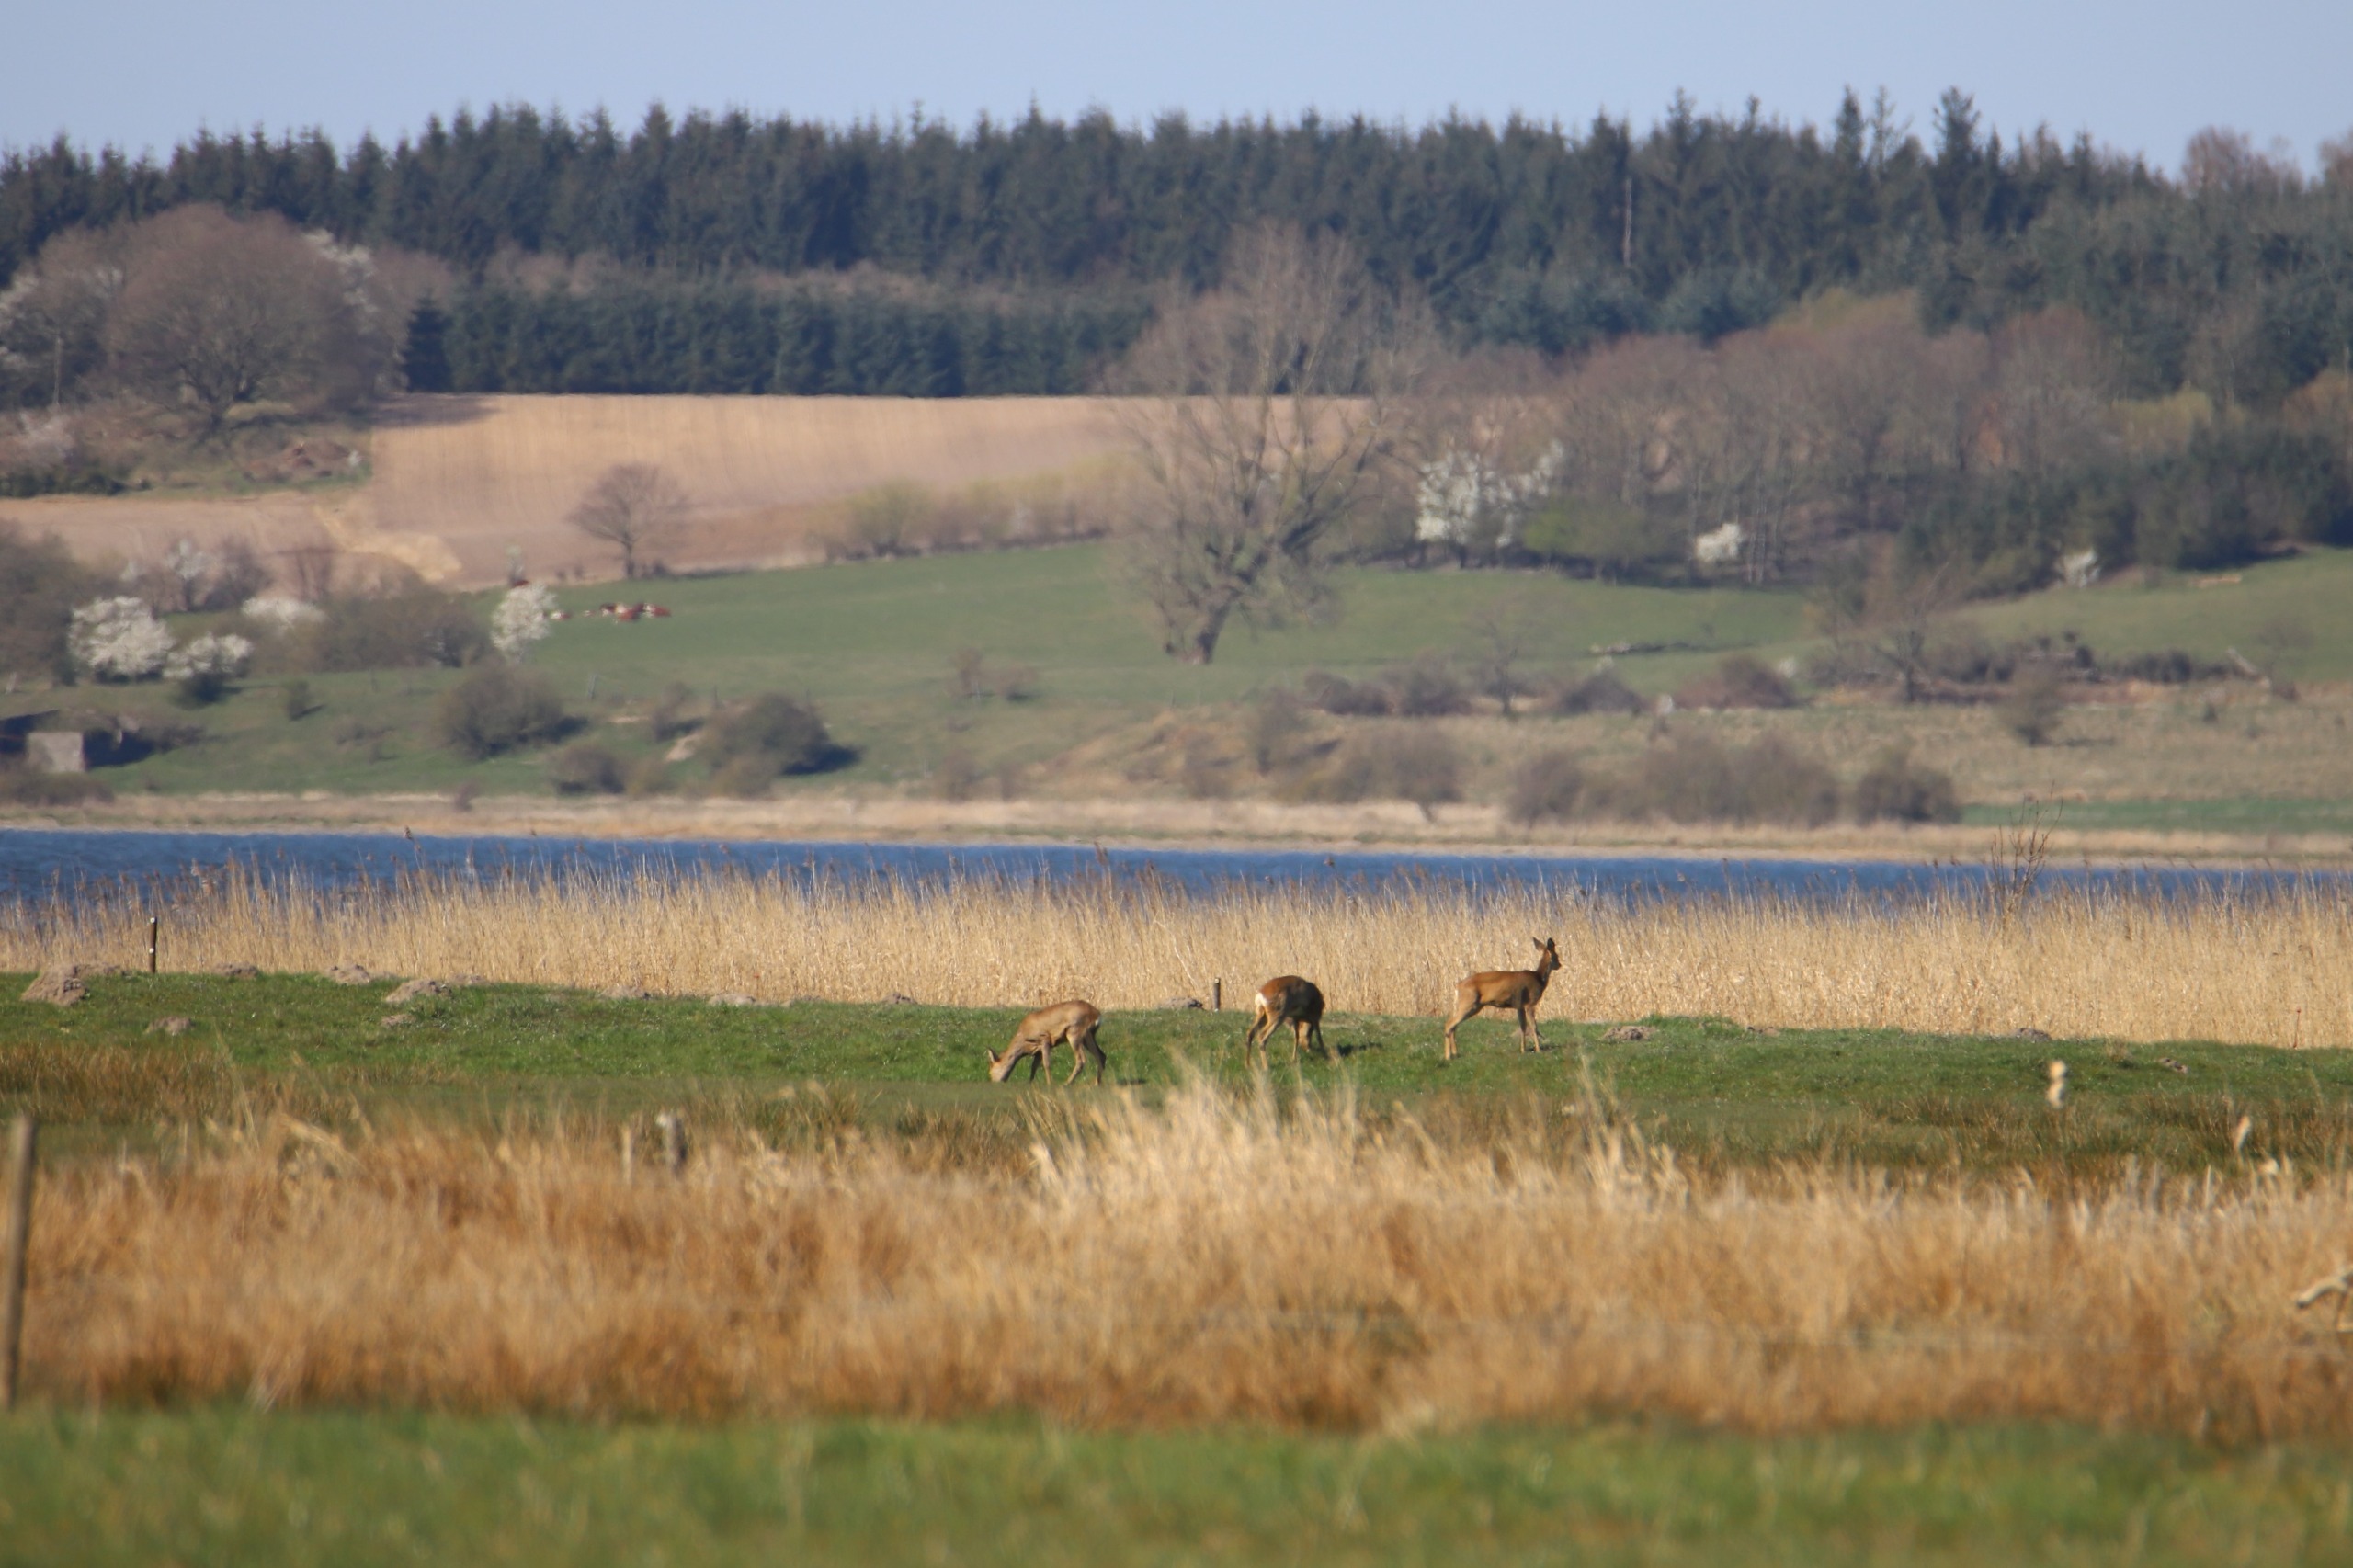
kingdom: Animalia
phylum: Chordata
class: Mammalia
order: Artiodactyla
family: Cervidae
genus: Capreolus
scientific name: Capreolus capreolus
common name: Rådyr
